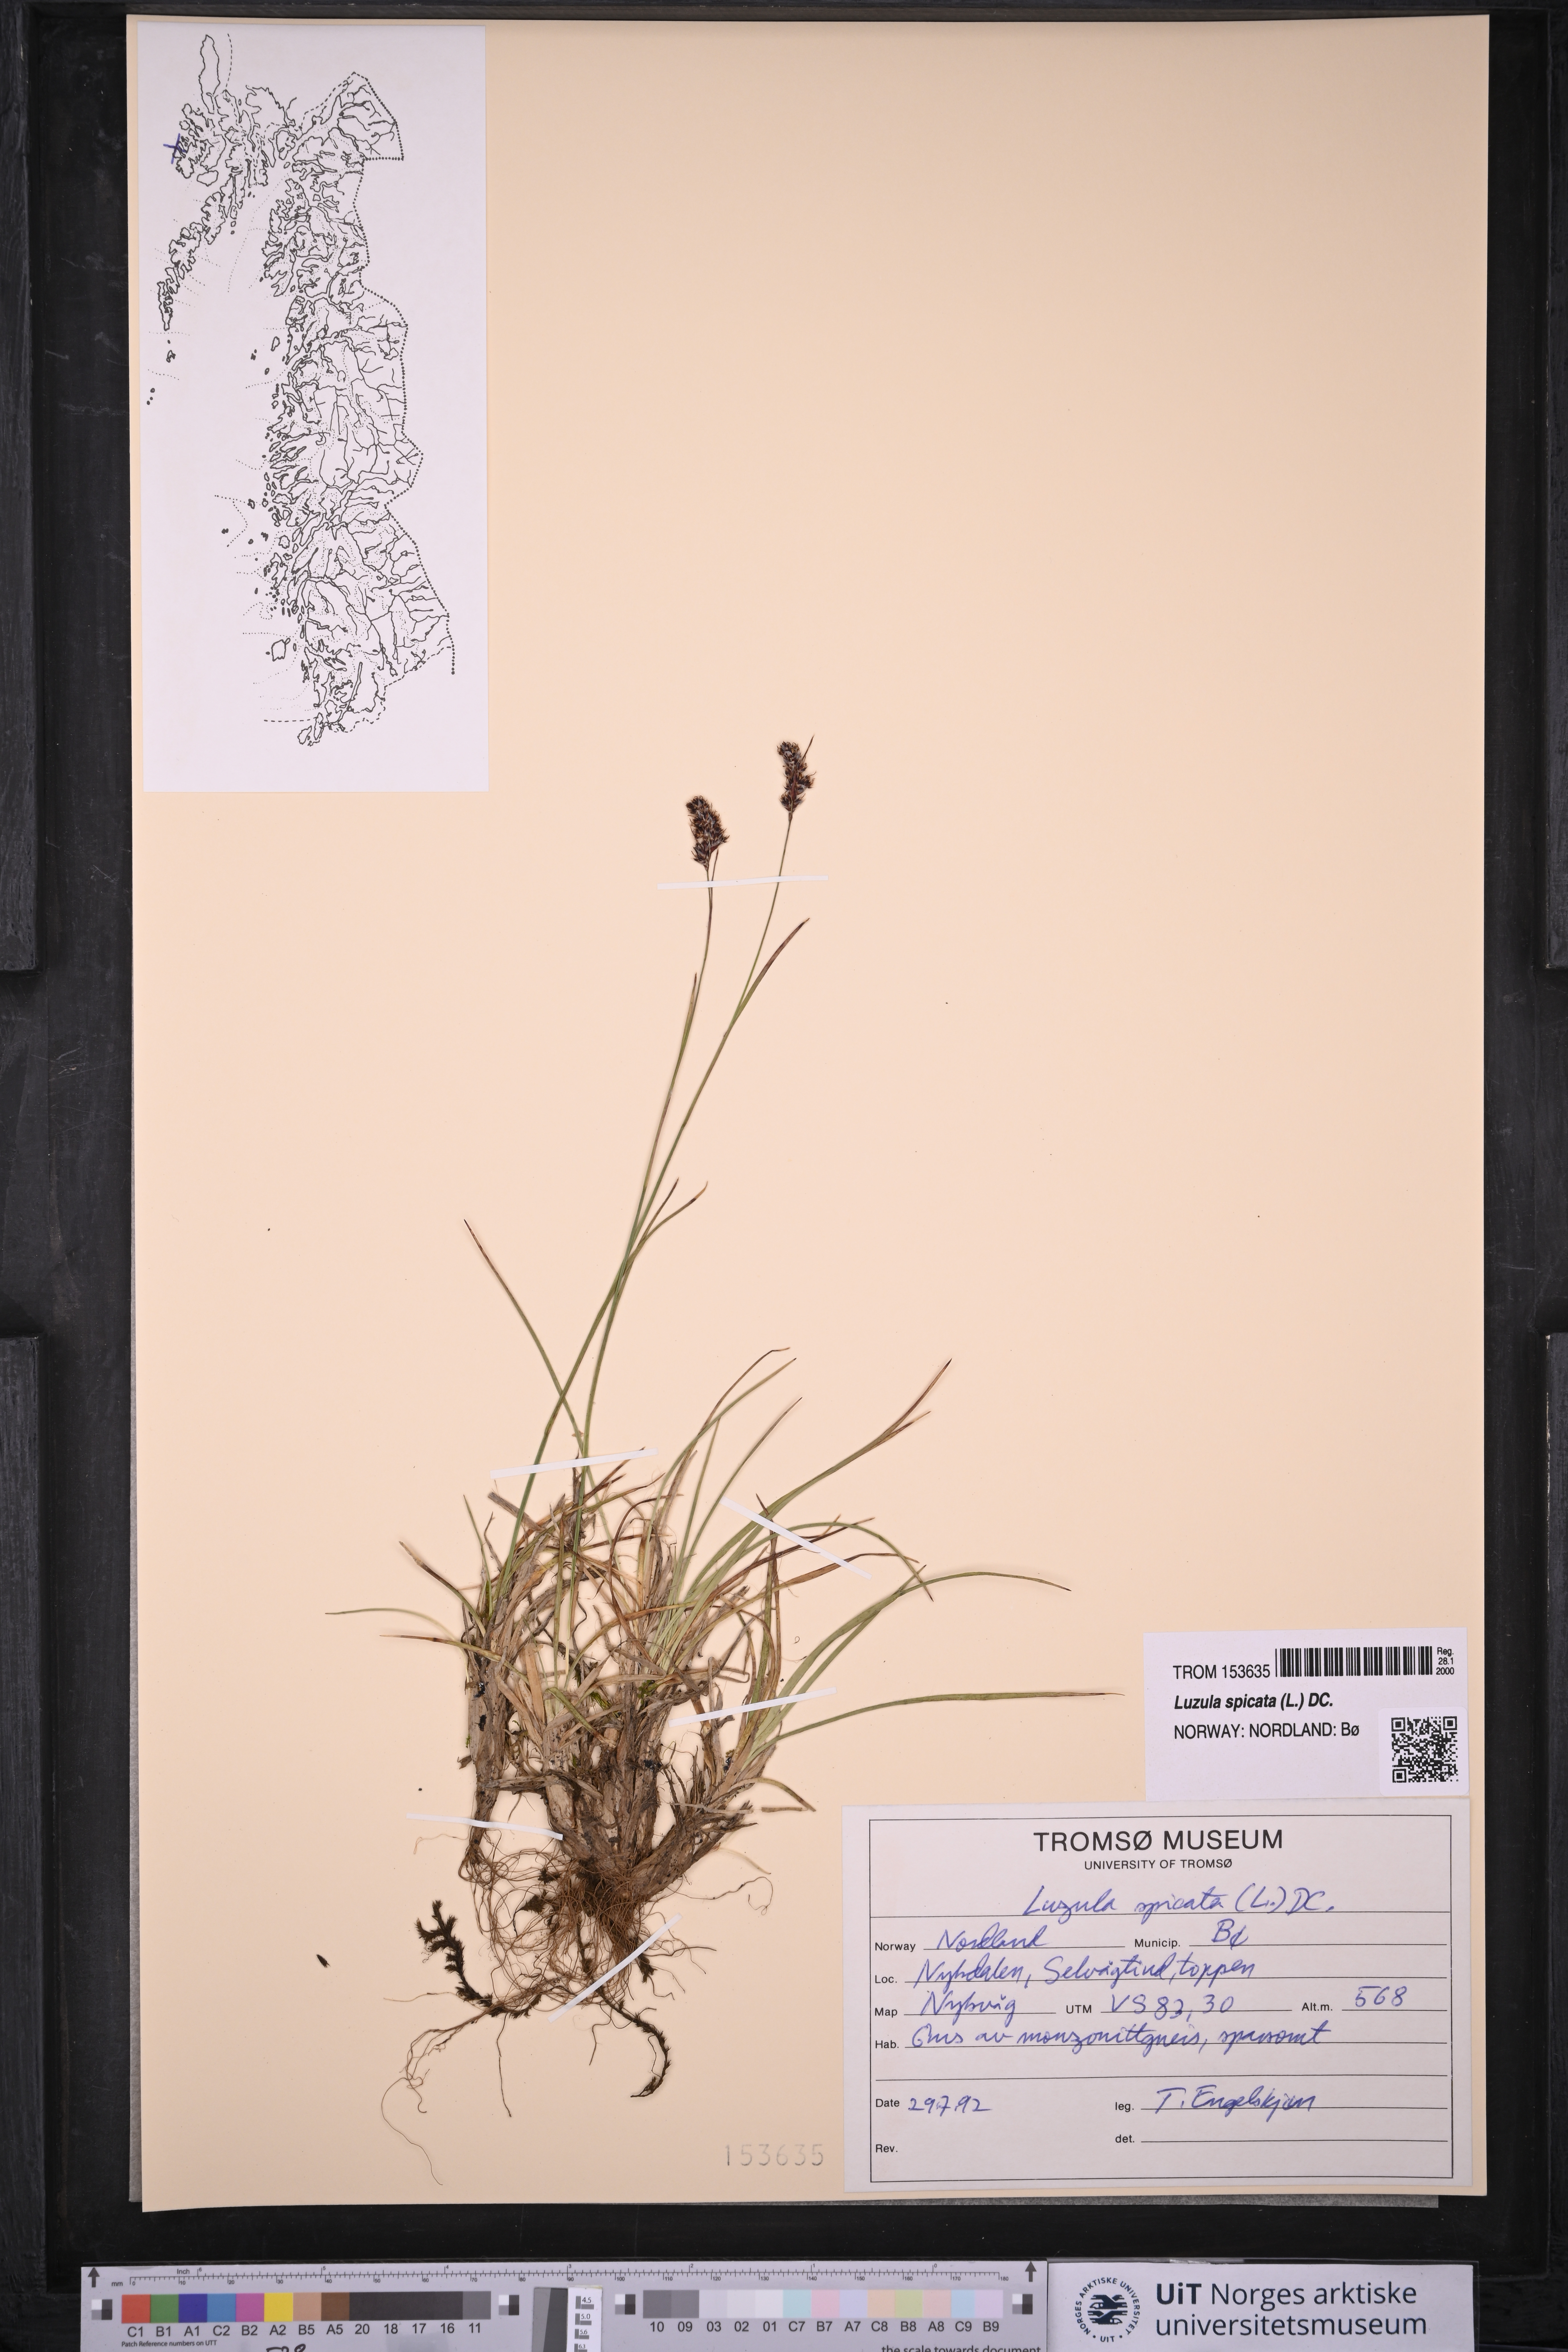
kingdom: Plantae
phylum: Tracheophyta
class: Liliopsida
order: Poales
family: Juncaceae
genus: Luzula
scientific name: Luzula spicata
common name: Spiked wood-rush
